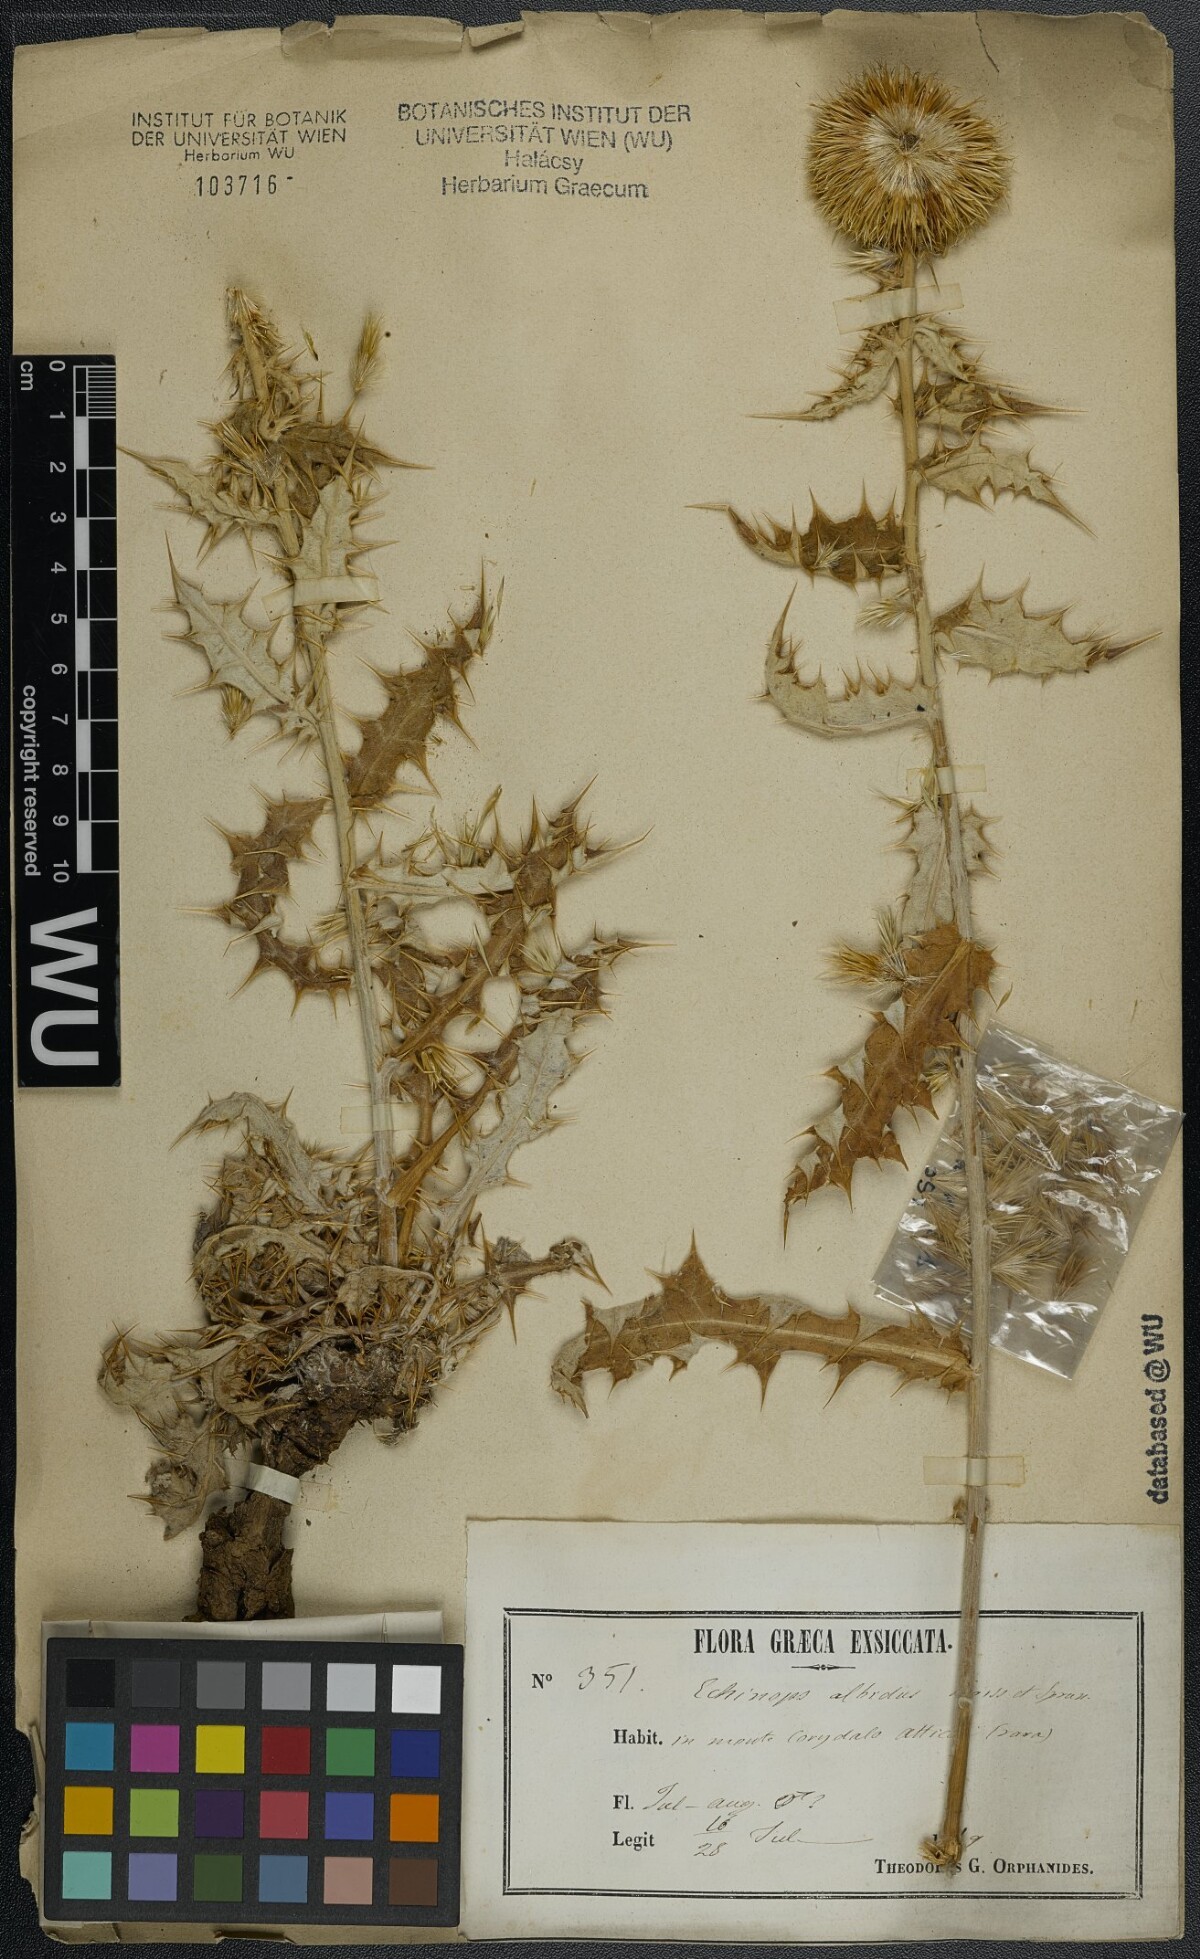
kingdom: Plantae
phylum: Tracheophyta
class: Magnoliopsida
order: Asterales
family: Asteraceae
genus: Echinops
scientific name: Echinops sphaerocephalus
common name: Glandular globe-thistle
